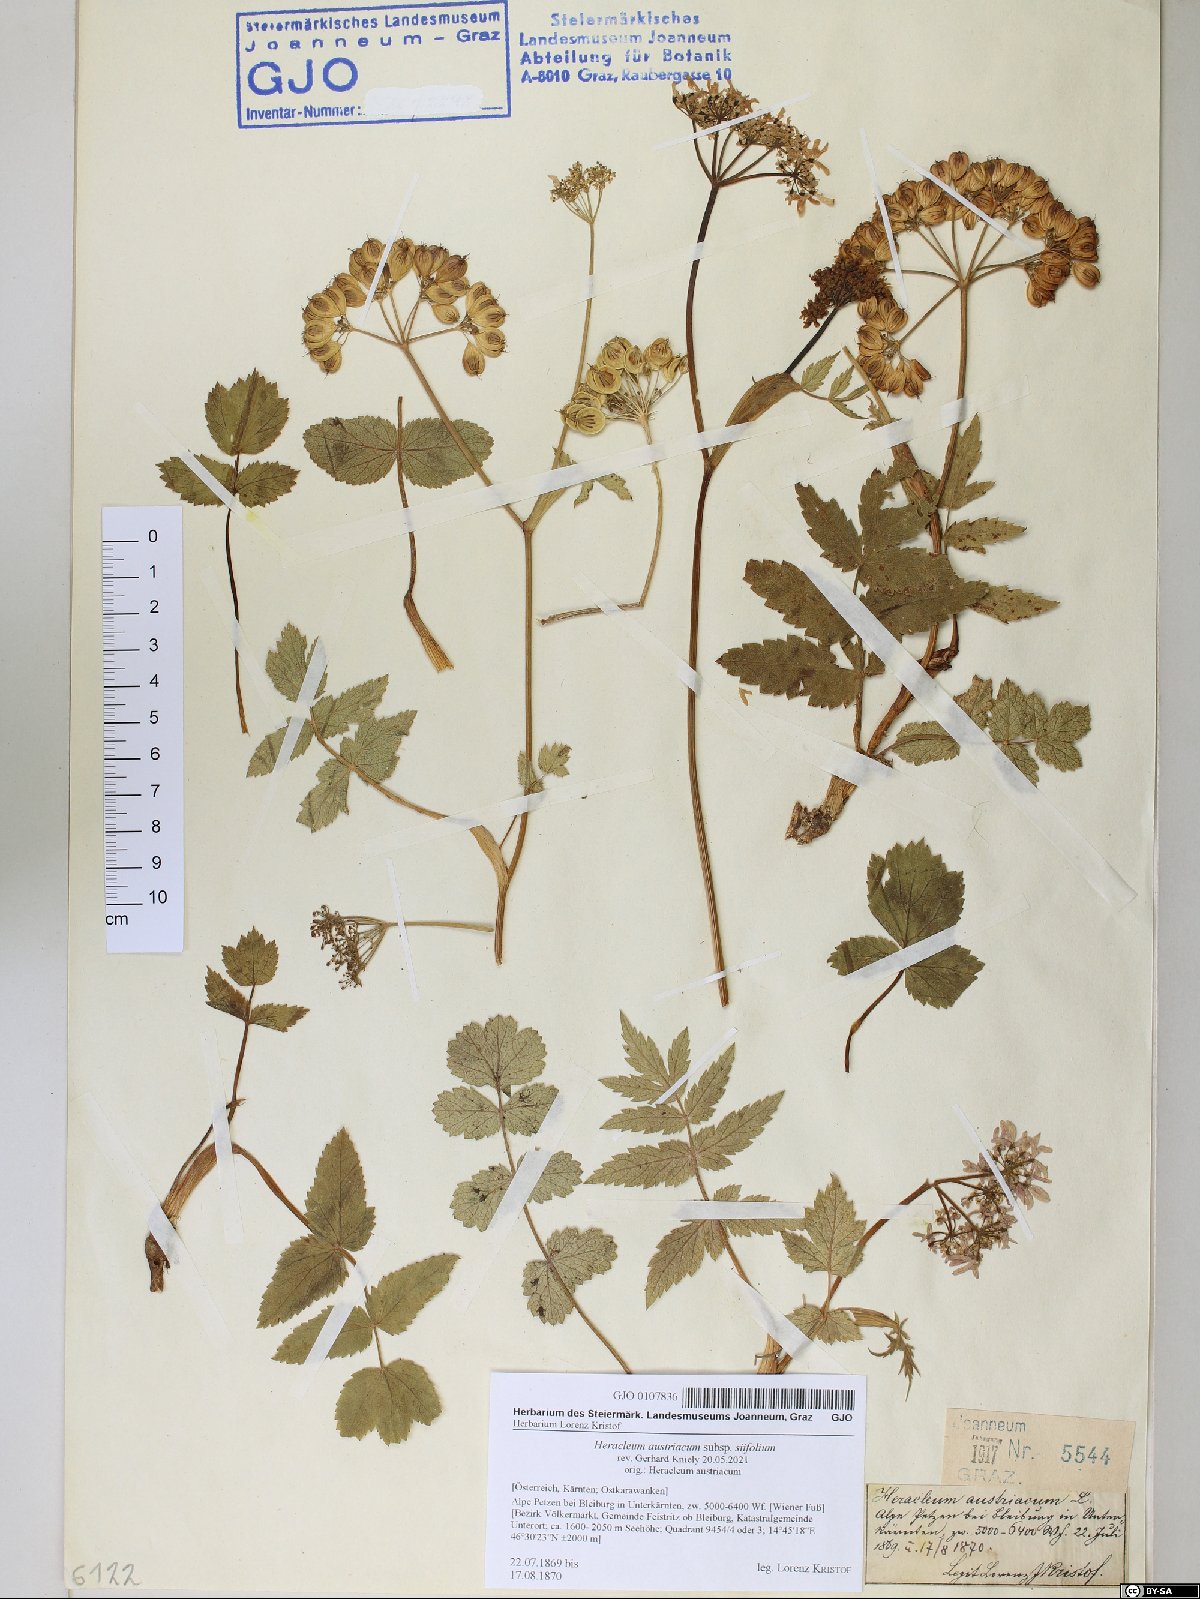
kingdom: Plantae
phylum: Tracheophyta
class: Magnoliopsida
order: Apiales
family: Apiaceae
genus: Heracleum
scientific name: Heracleum austriacum
